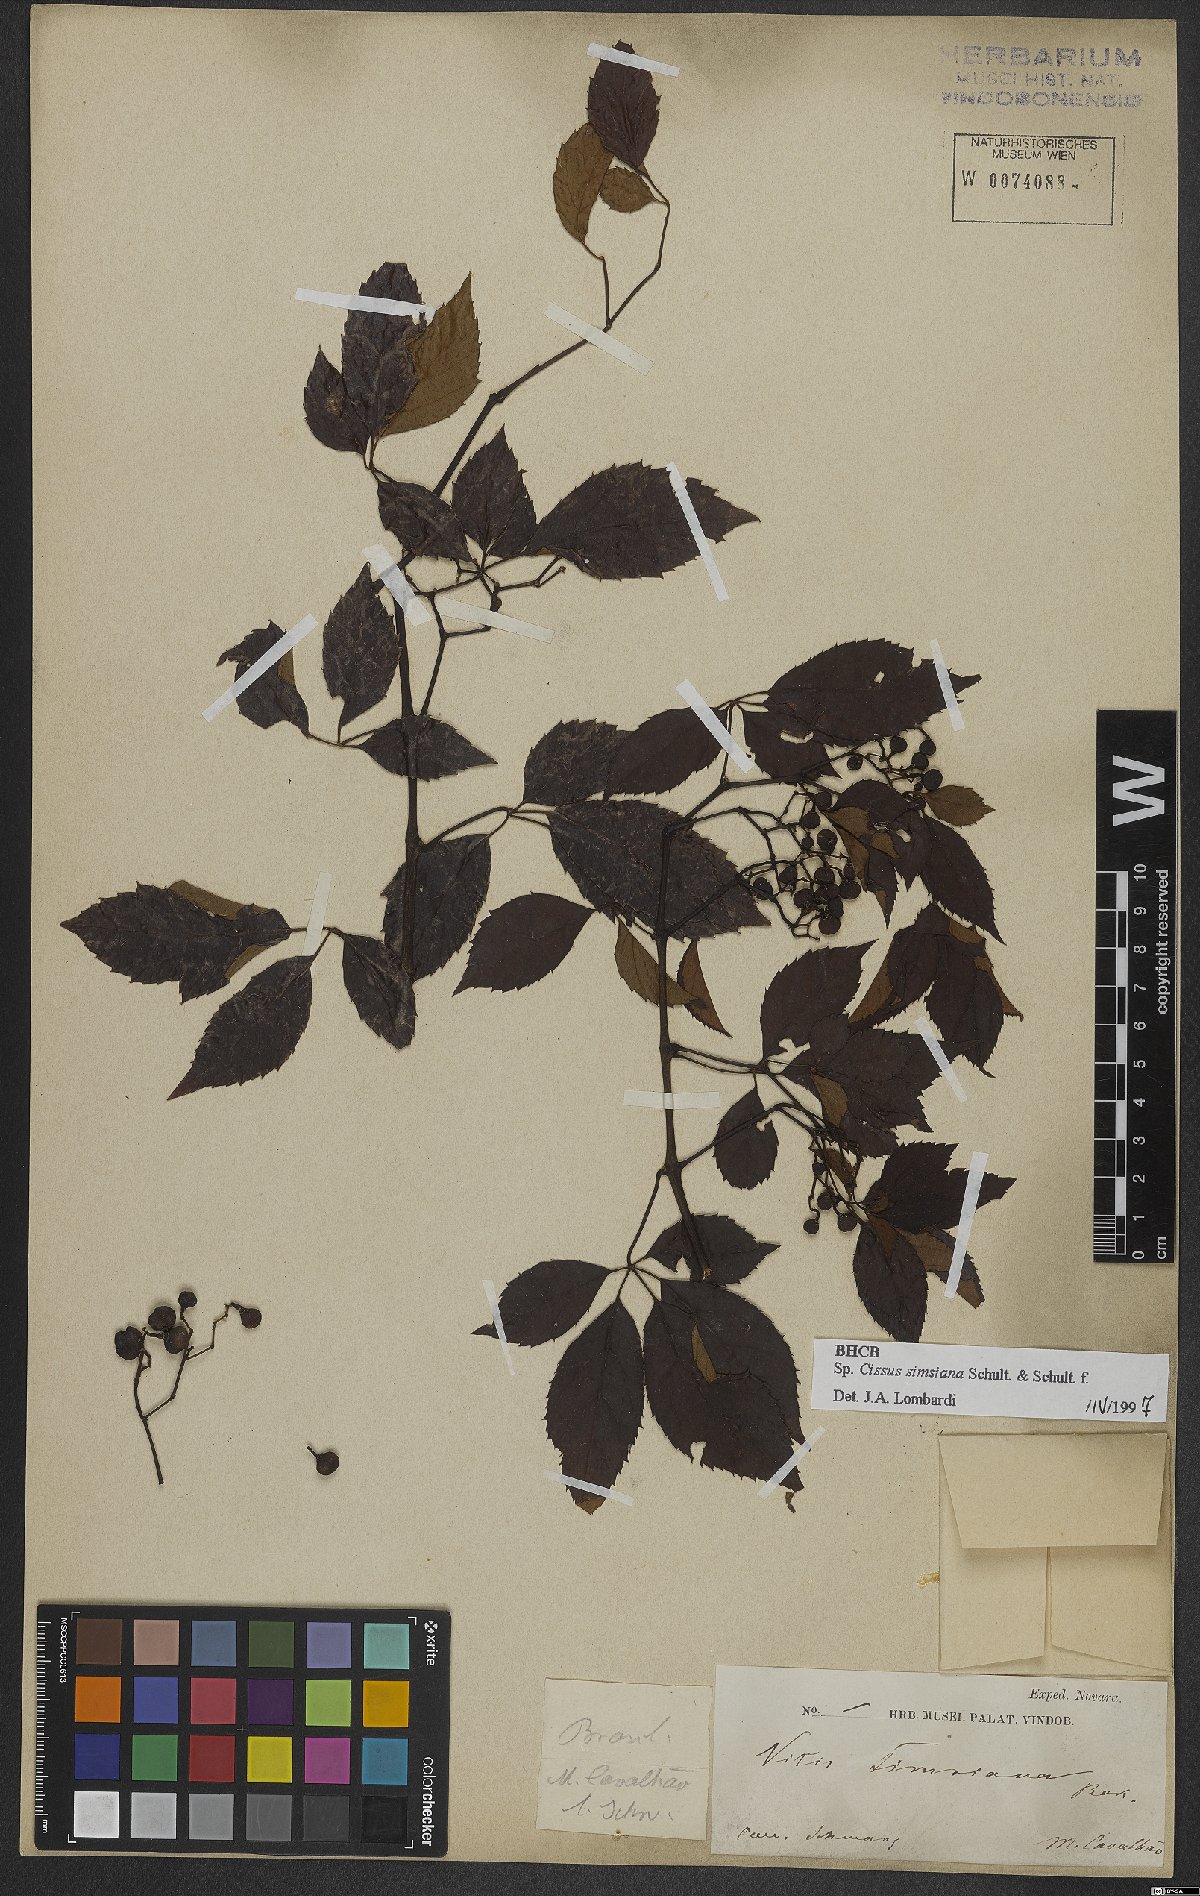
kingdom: Plantae
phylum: Tracheophyta
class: Magnoliopsida
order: Vitales
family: Vitaceae
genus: Clematicissus
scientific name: Clematicissus simsiana
